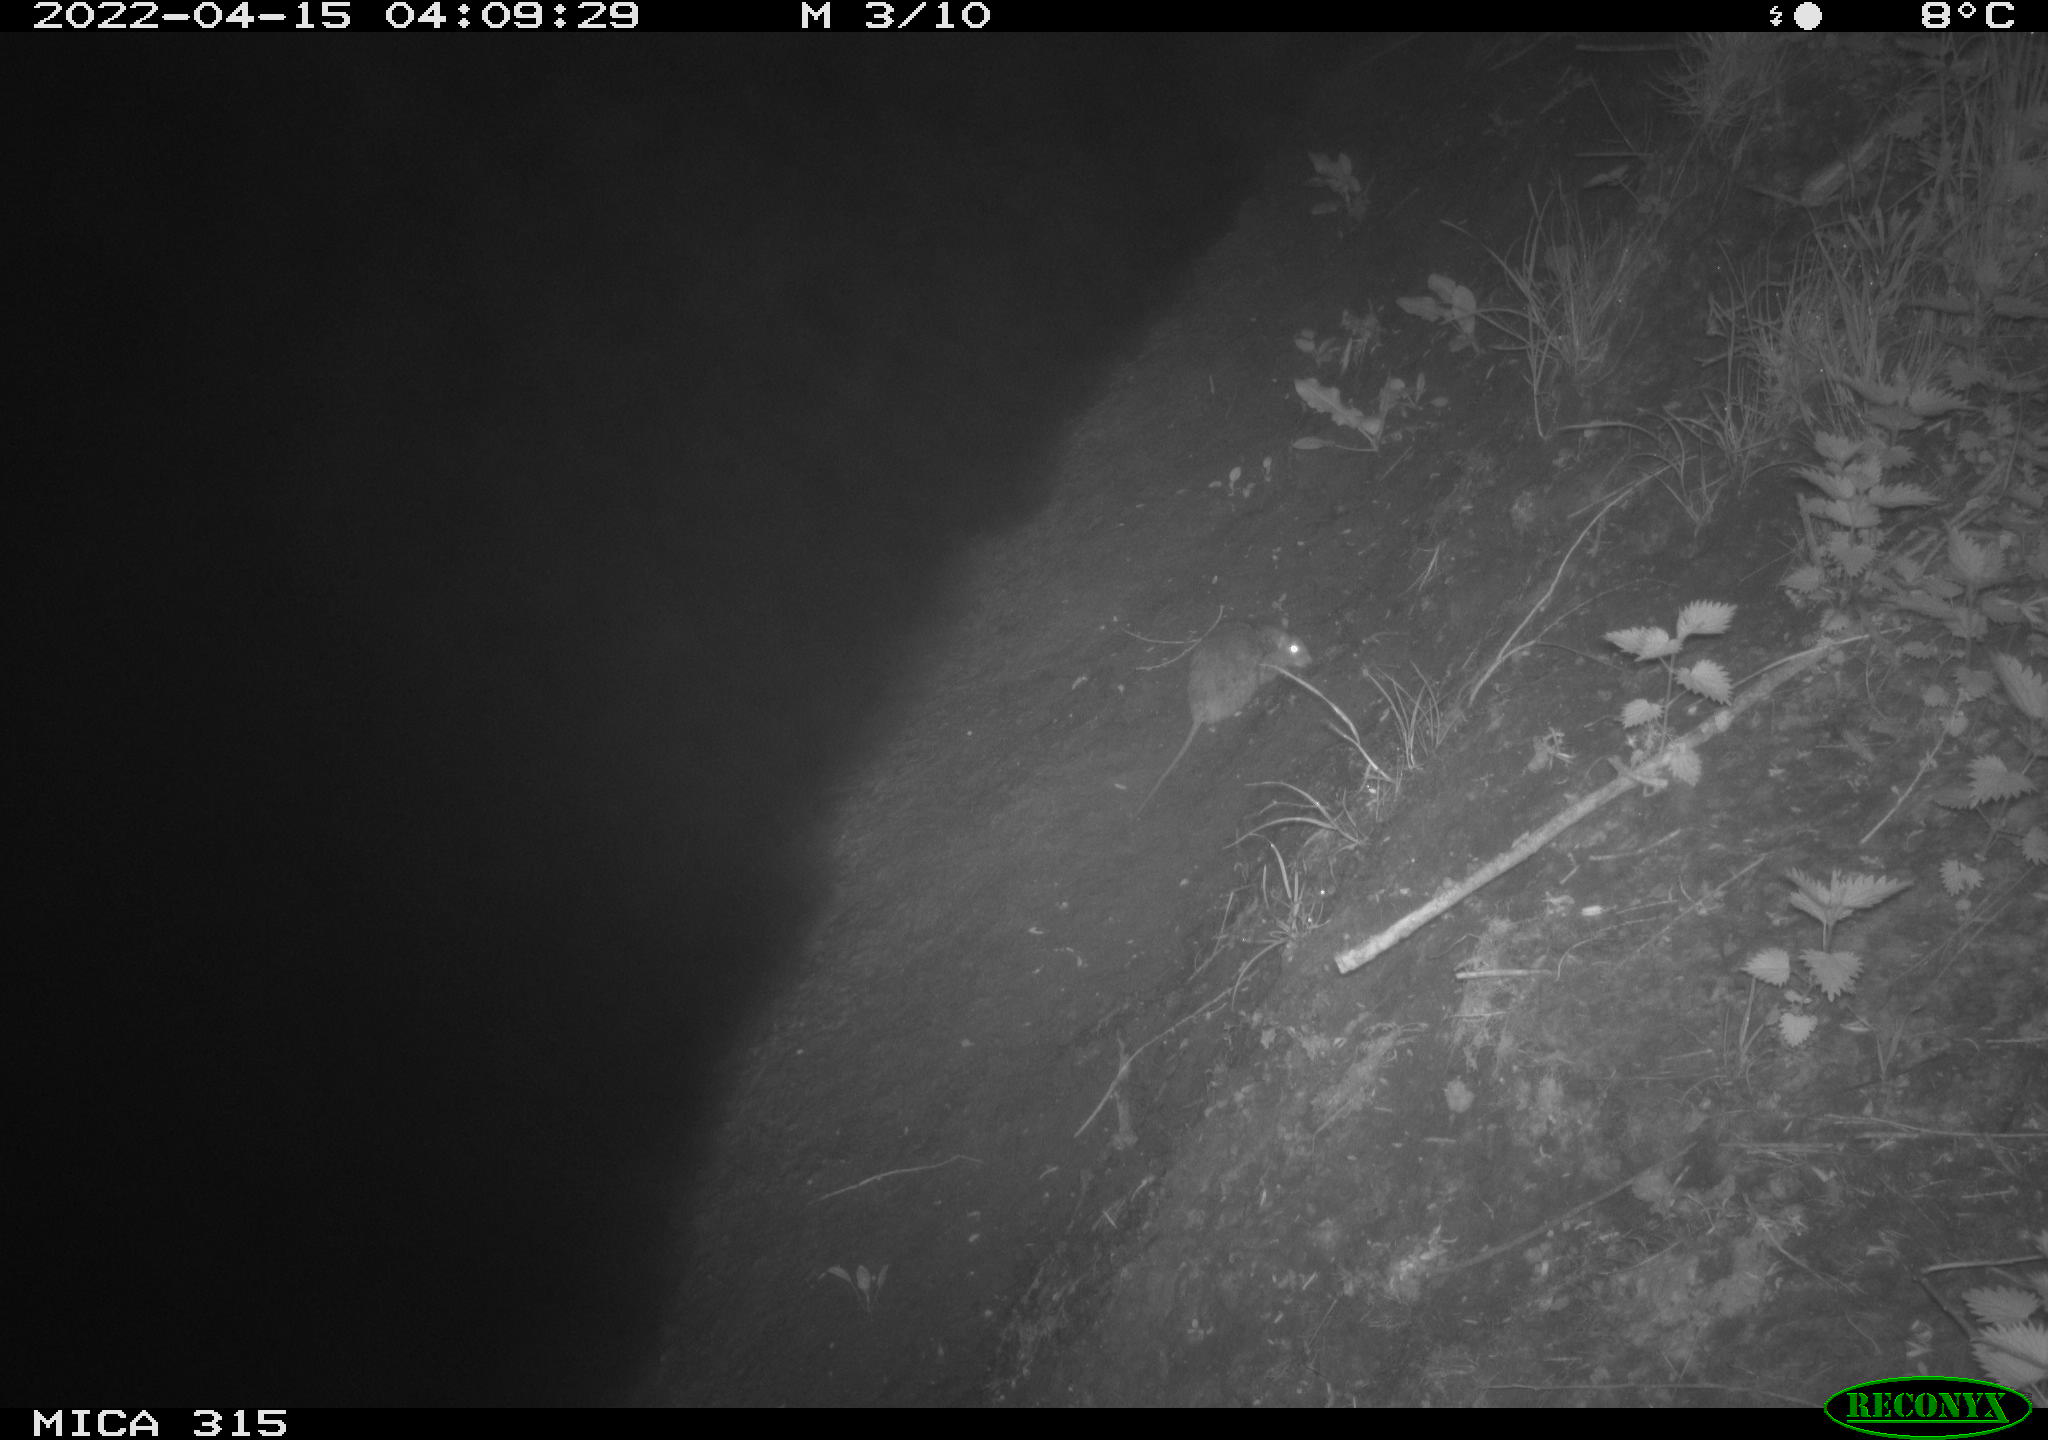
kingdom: Animalia
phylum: Chordata
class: Mammalia
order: Rodentia
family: Muridae
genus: Rattus
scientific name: Rattus norvegicus
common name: Brown rat
